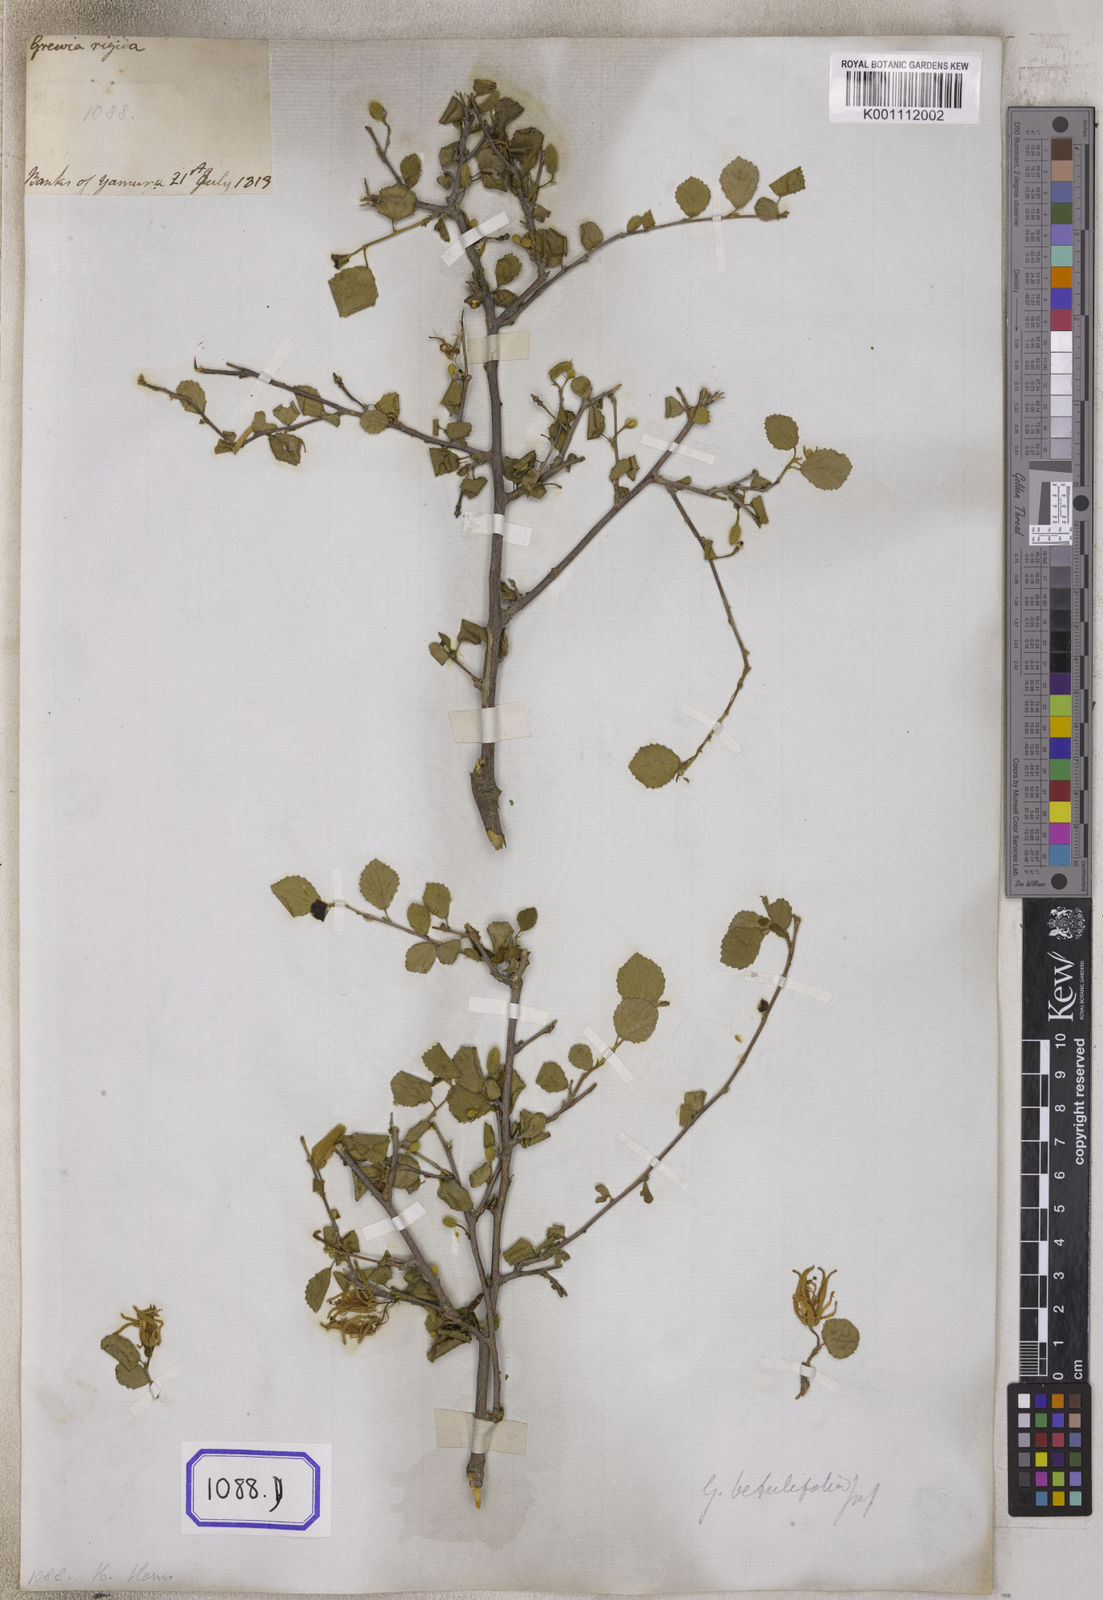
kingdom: Plantae
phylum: Tracheophyta
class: Magnoliopsida
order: Malvales
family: Malvaceae
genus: Grewia
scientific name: Grewia tenax
